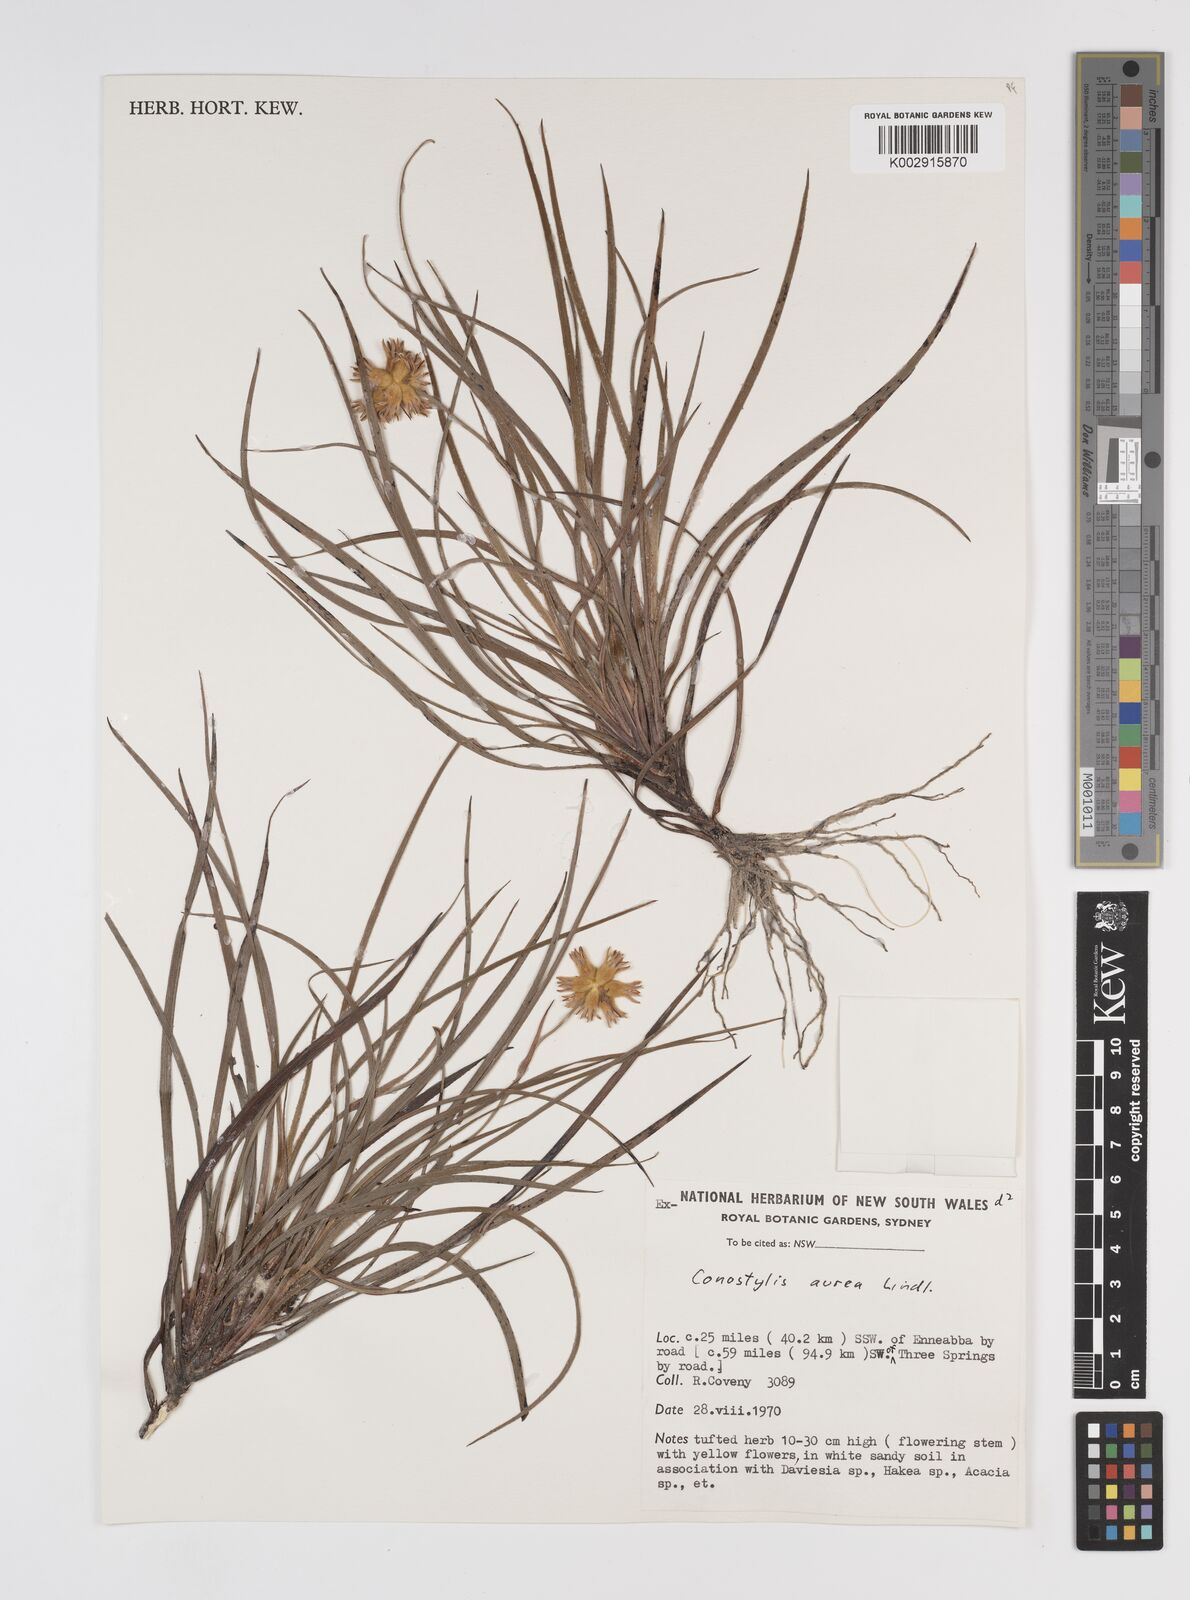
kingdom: Plantae
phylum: Tracheophyta
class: Liliopsida
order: Commelinales
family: Haemodoraceae
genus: Conostylis
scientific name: Conostylis aurea
